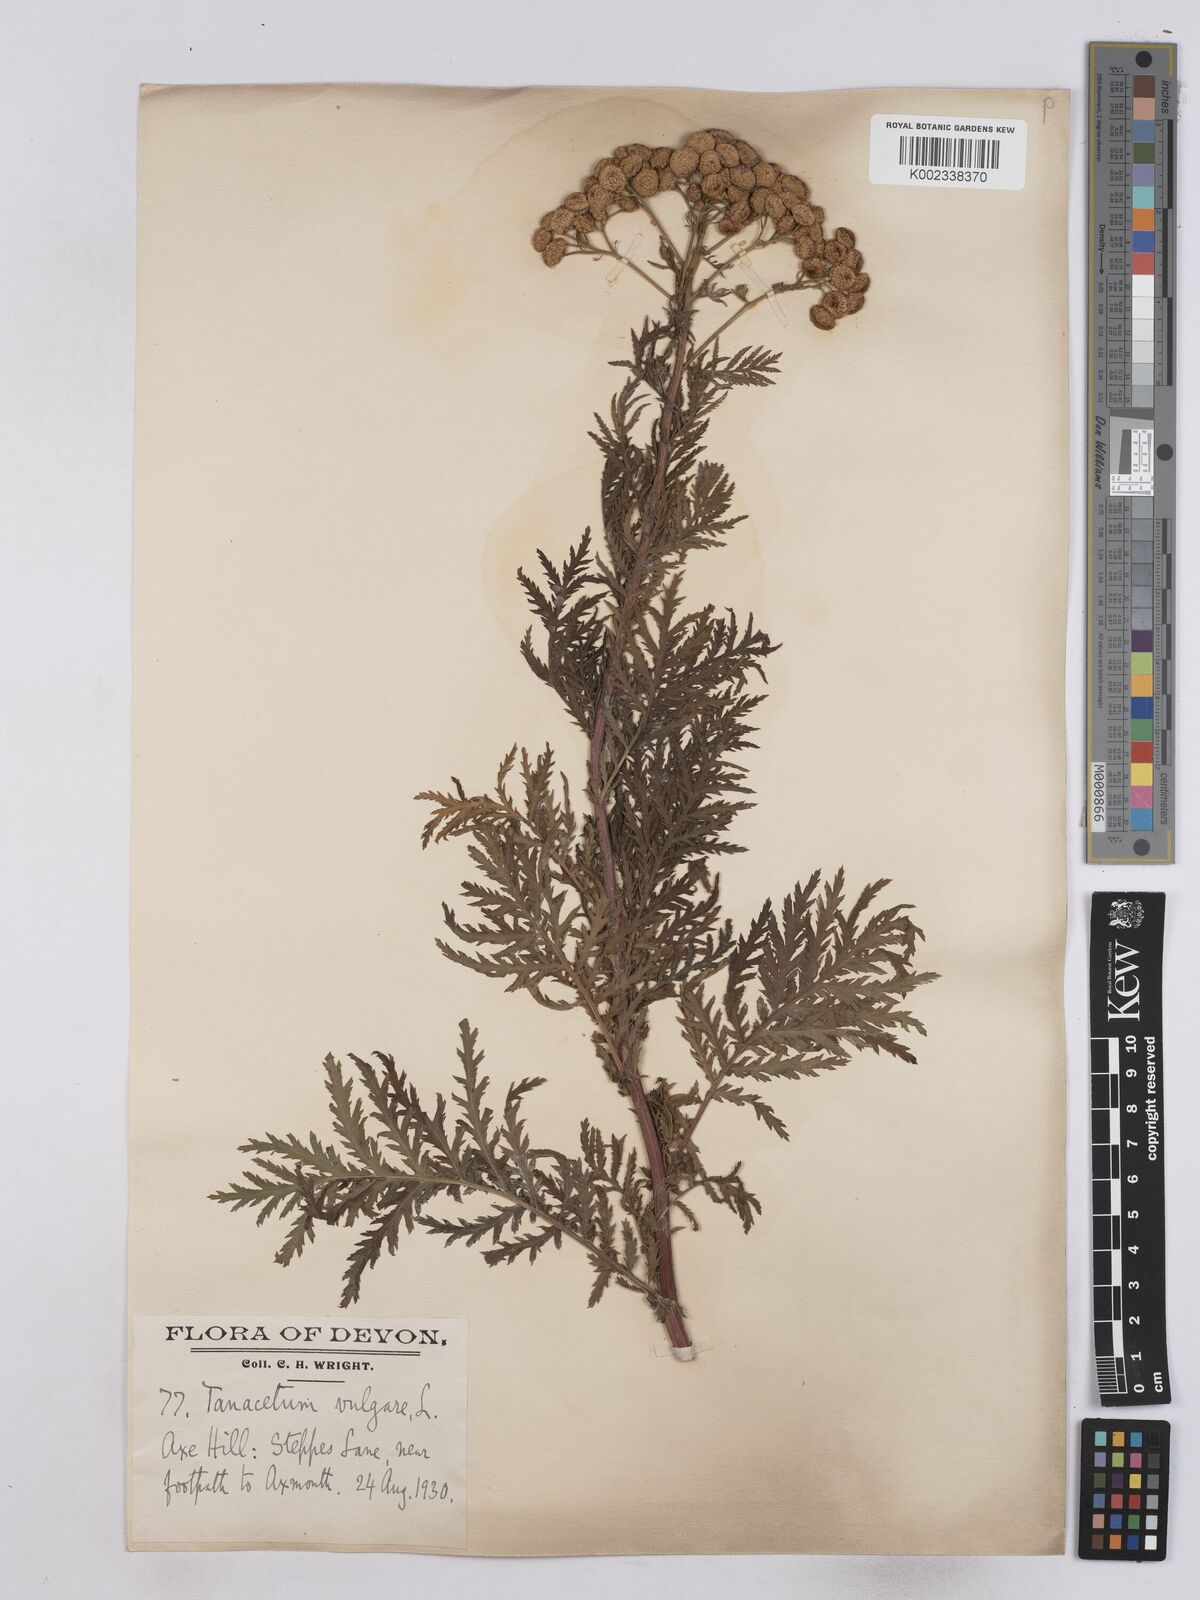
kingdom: Plantae
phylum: Tracheophyta
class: Magnoliopsida
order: Asterales
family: Asteraceae
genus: Tanacetum
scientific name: Tanacetum vulgare
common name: Common tansy
